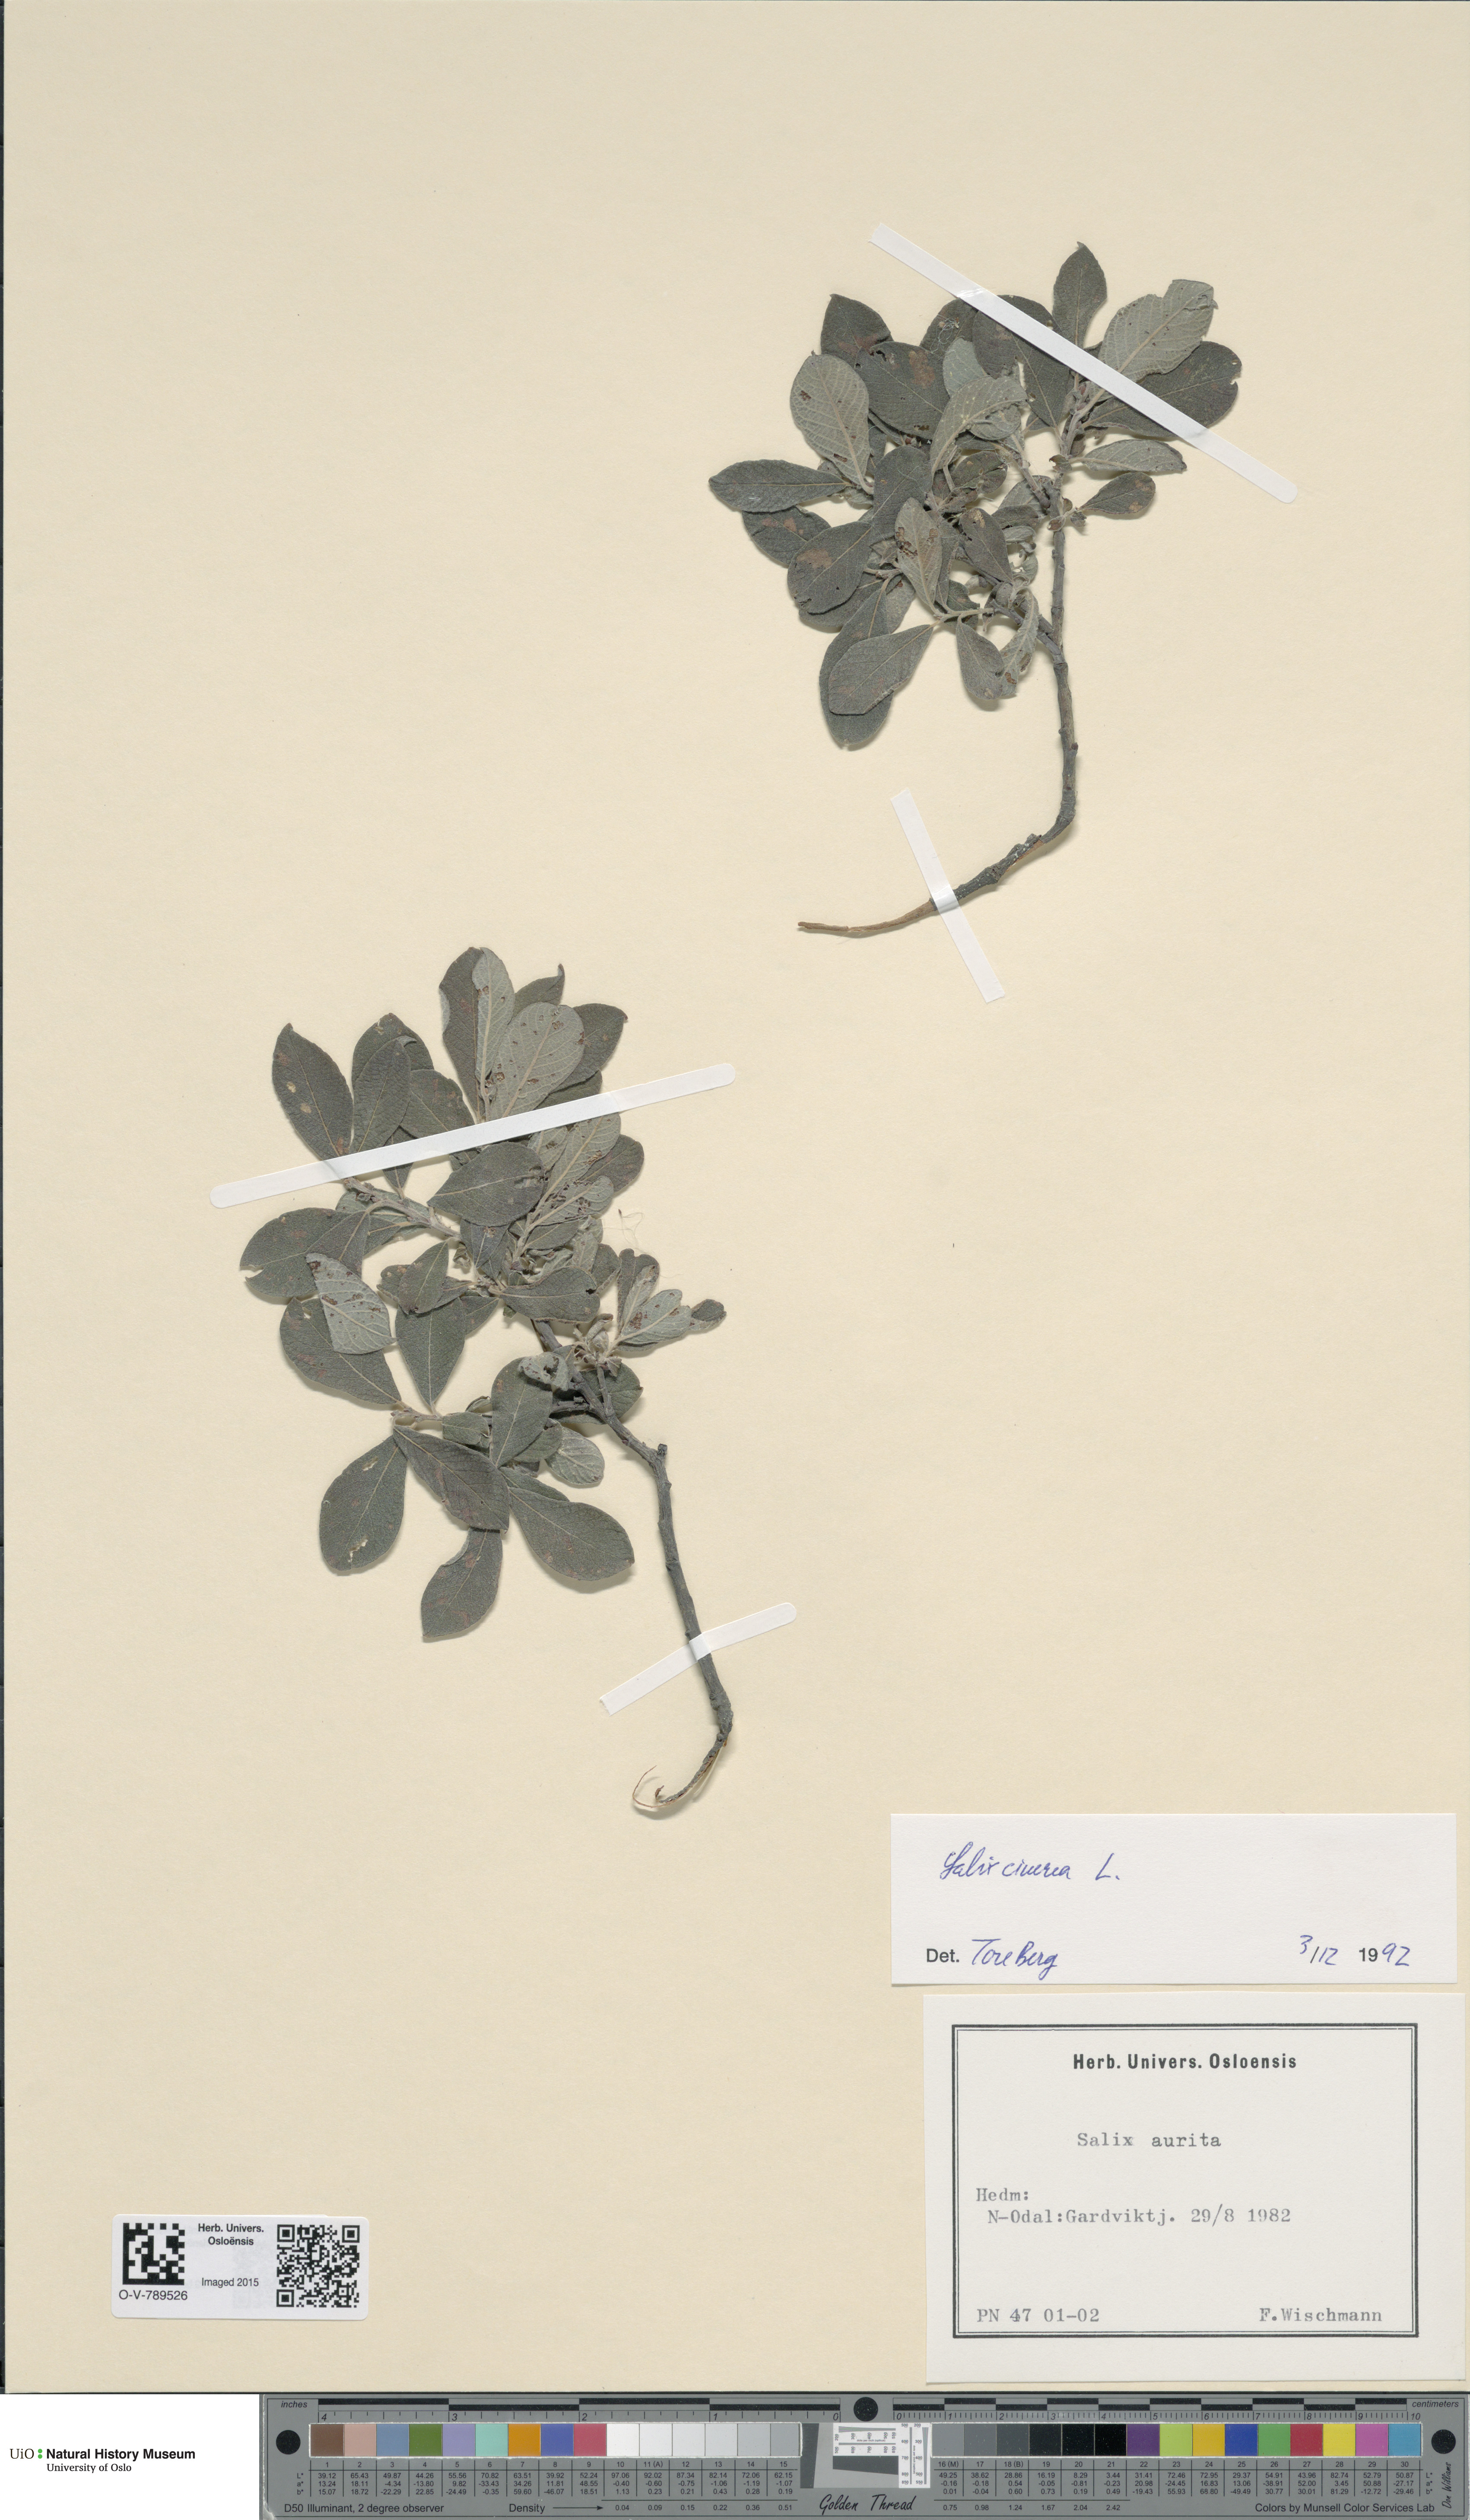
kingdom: Plantae
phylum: Tracheophyta
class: Magnoliopsida
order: Malpighiales
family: Salicaceae
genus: Salix
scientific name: Salix cinerea
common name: Common sallow
